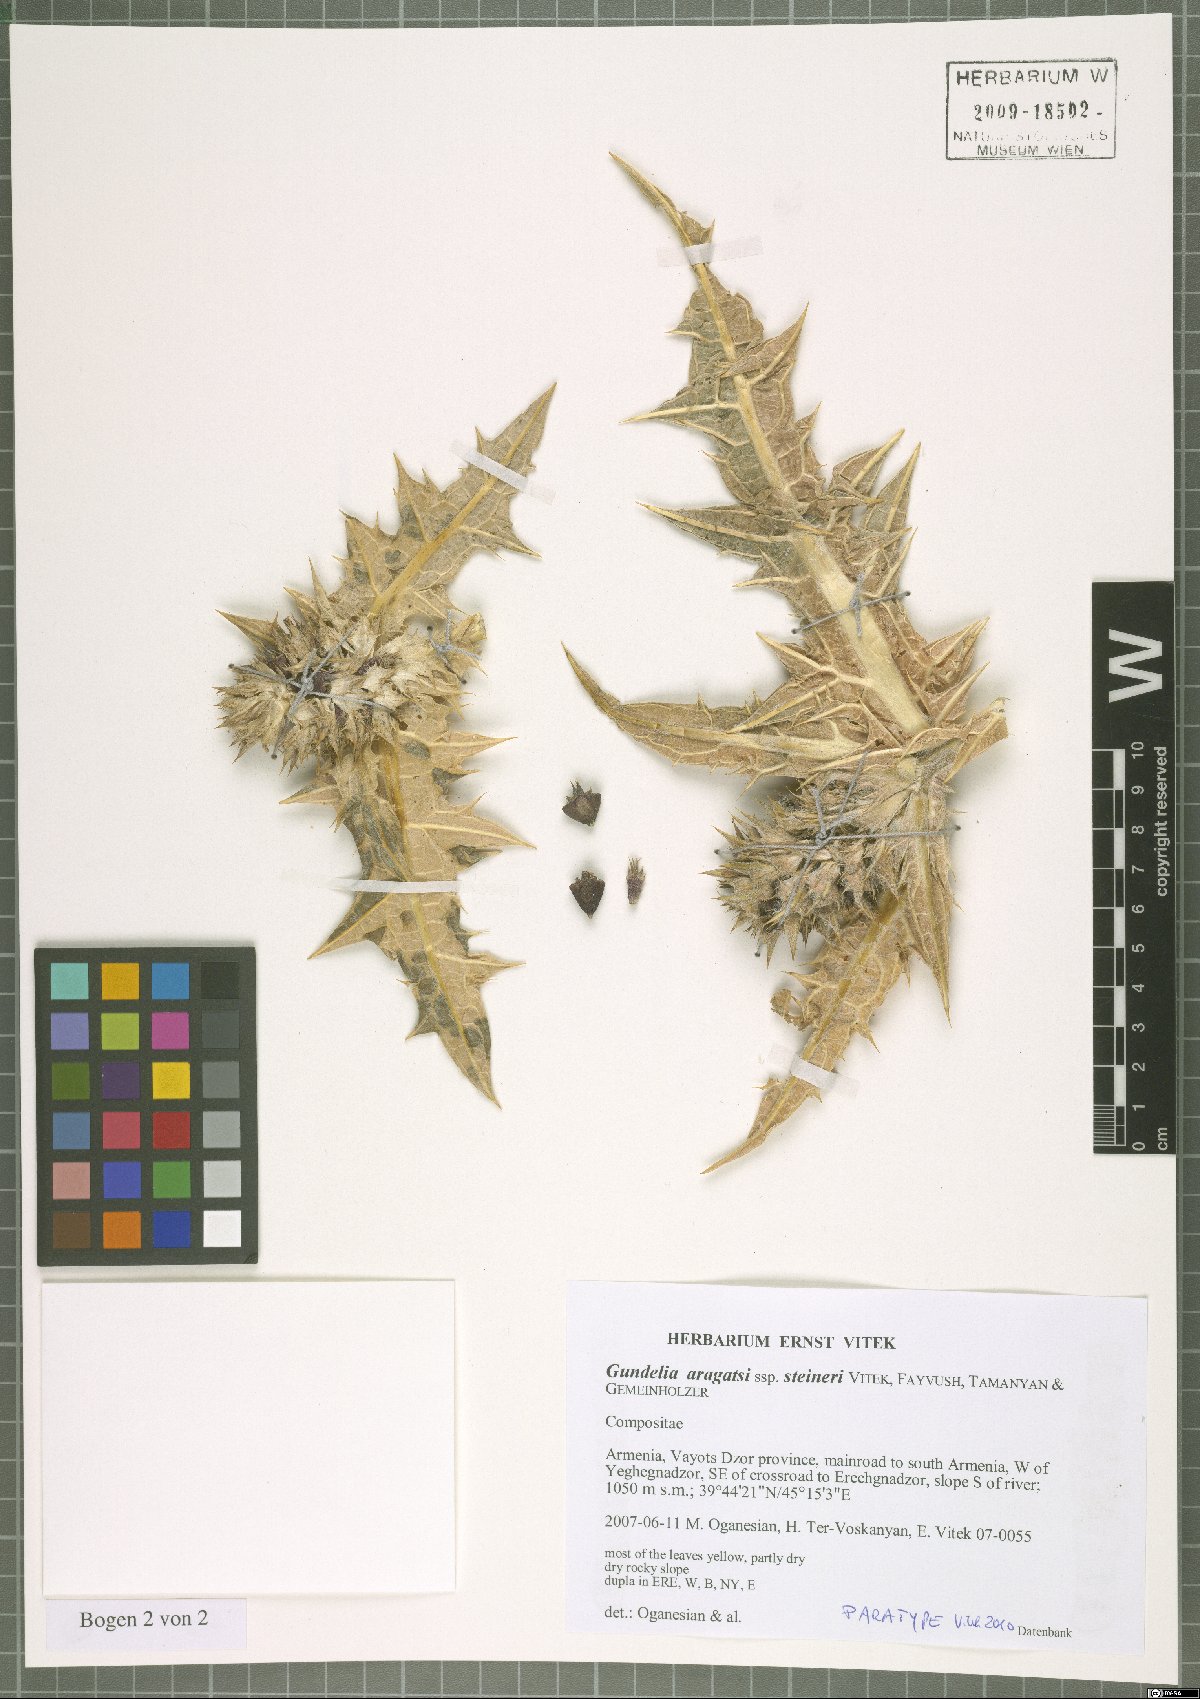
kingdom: Plantae
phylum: Tracheophyta
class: Magnoliopsida
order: Asterales
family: Asteraceae
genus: Gundelia
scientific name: Gundelia aragatsi
